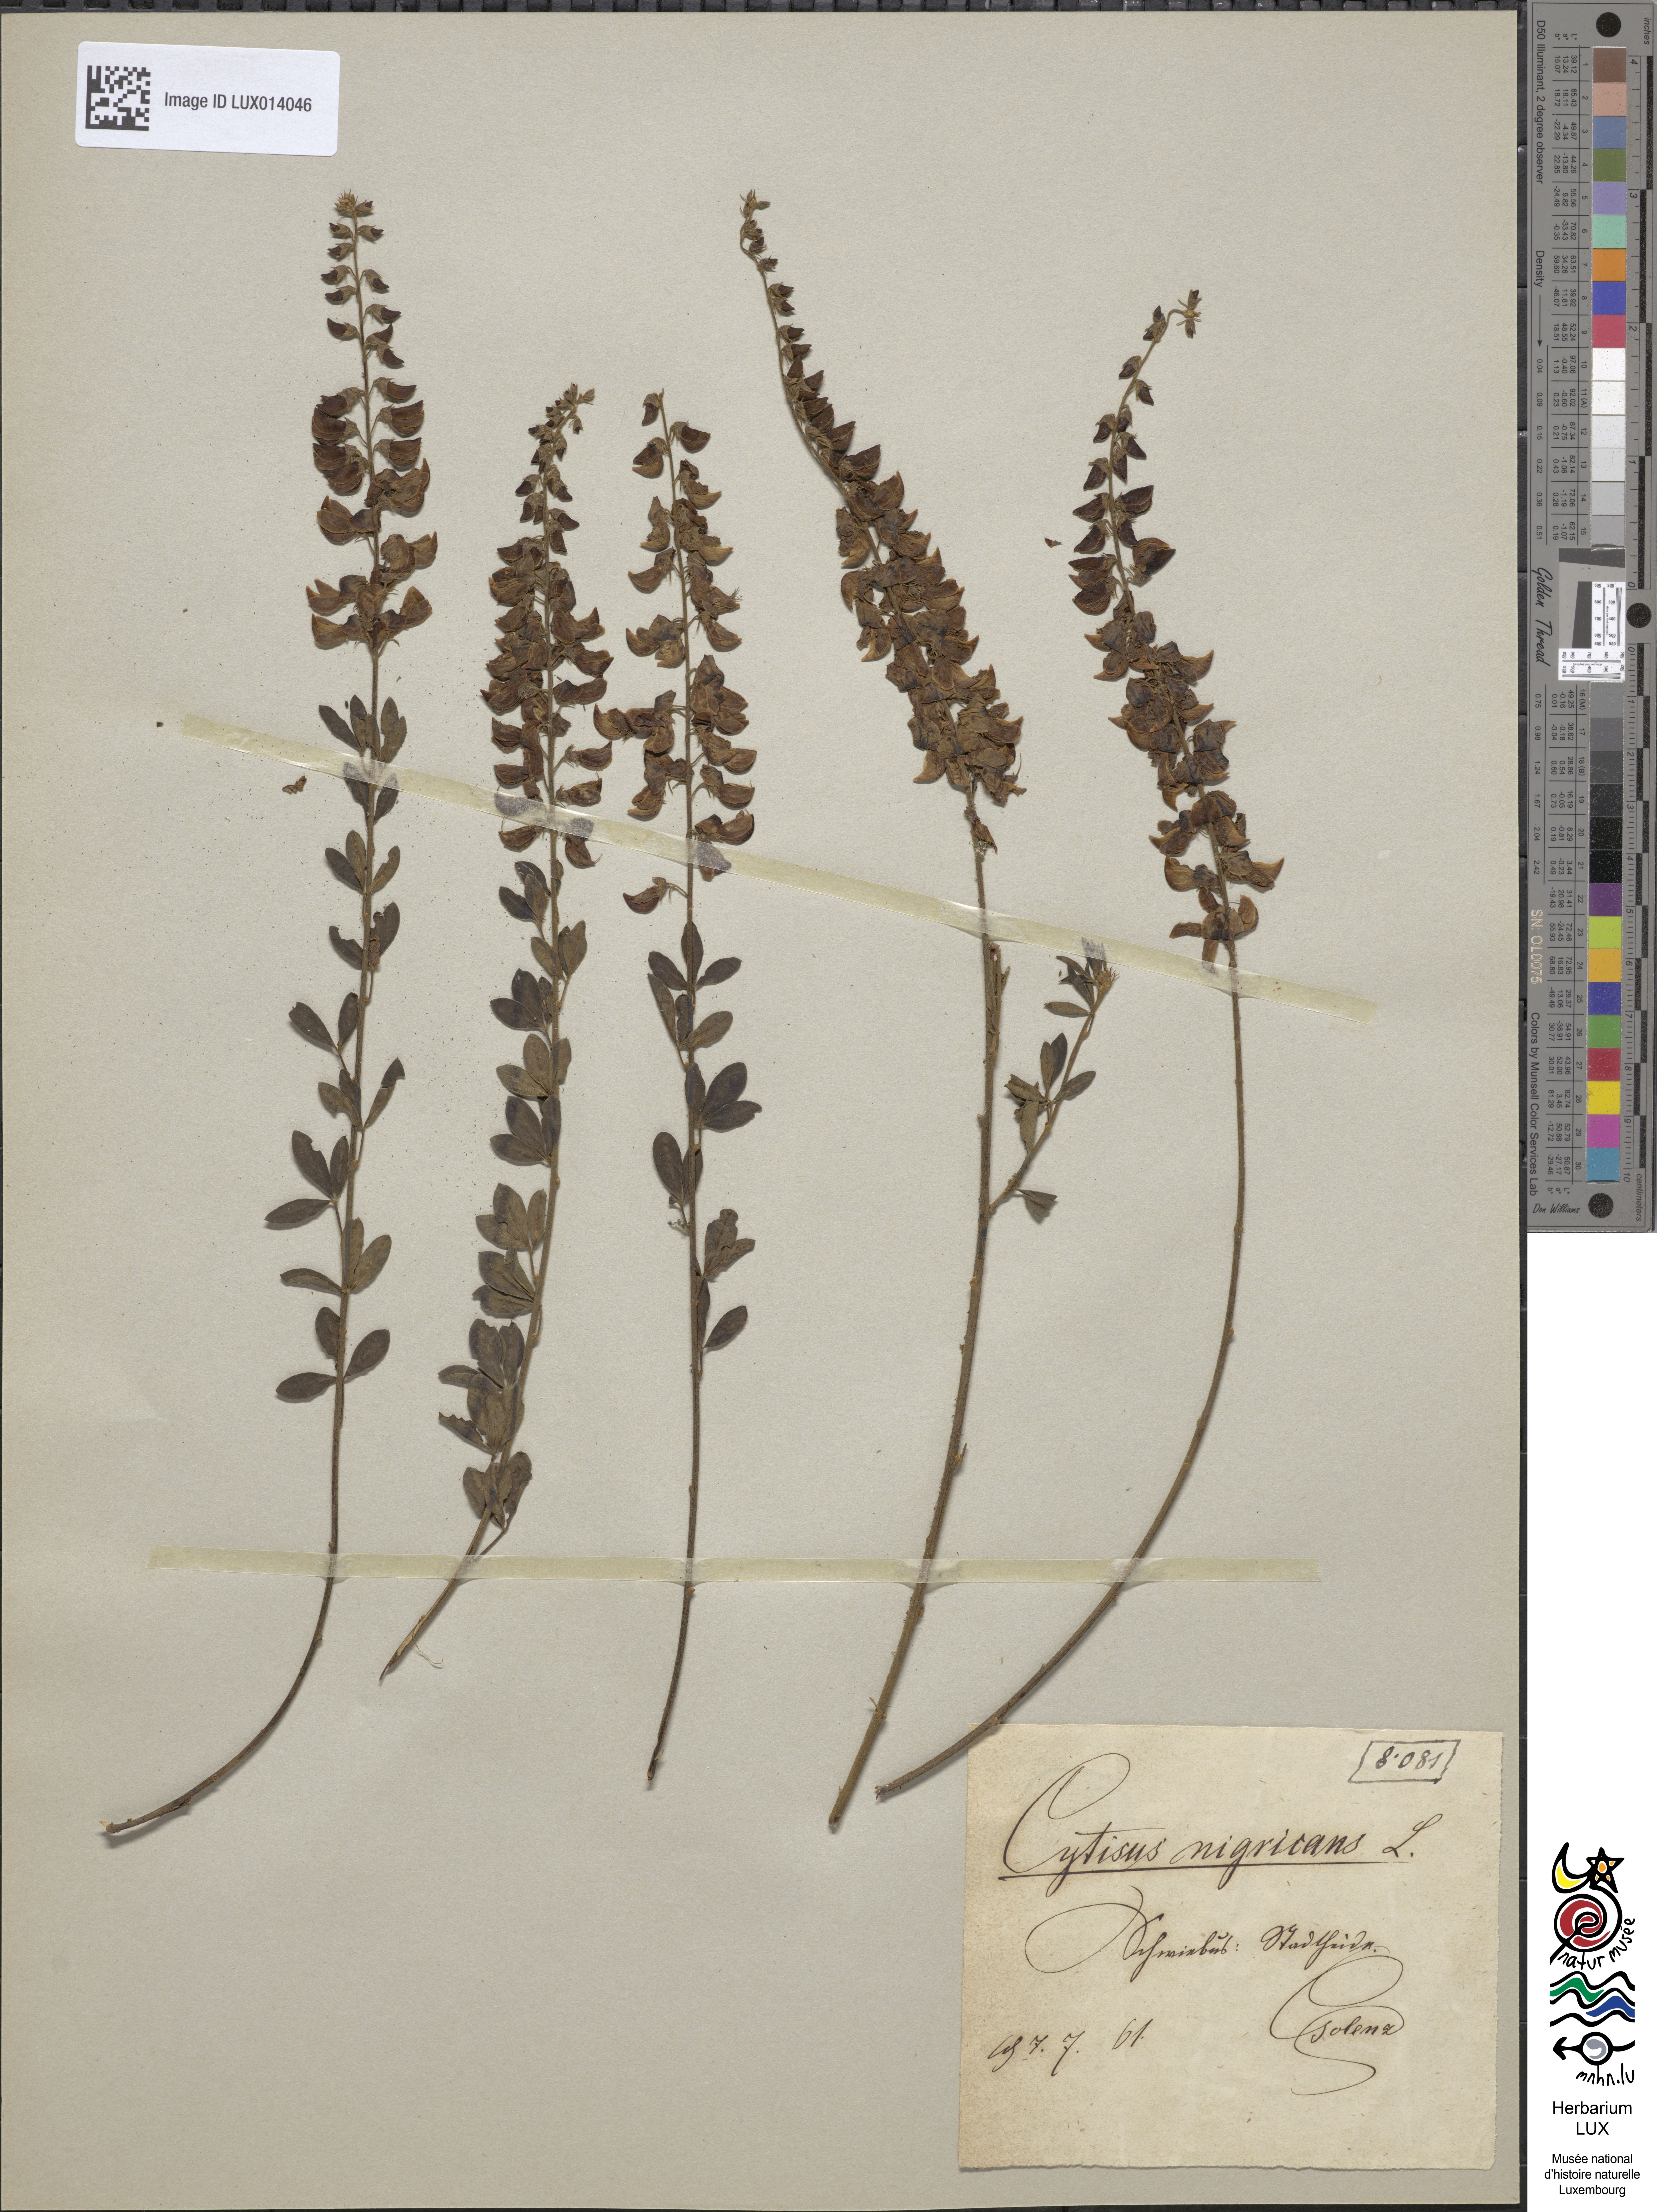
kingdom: Plantae
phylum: Tracheophyta
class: Magnoliopsida
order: Fabales
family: Fabaceae
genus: Cytisus
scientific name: Cytisus nigricans
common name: Black broom
